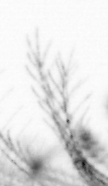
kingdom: Animalia
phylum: Chordata
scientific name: Chordata
